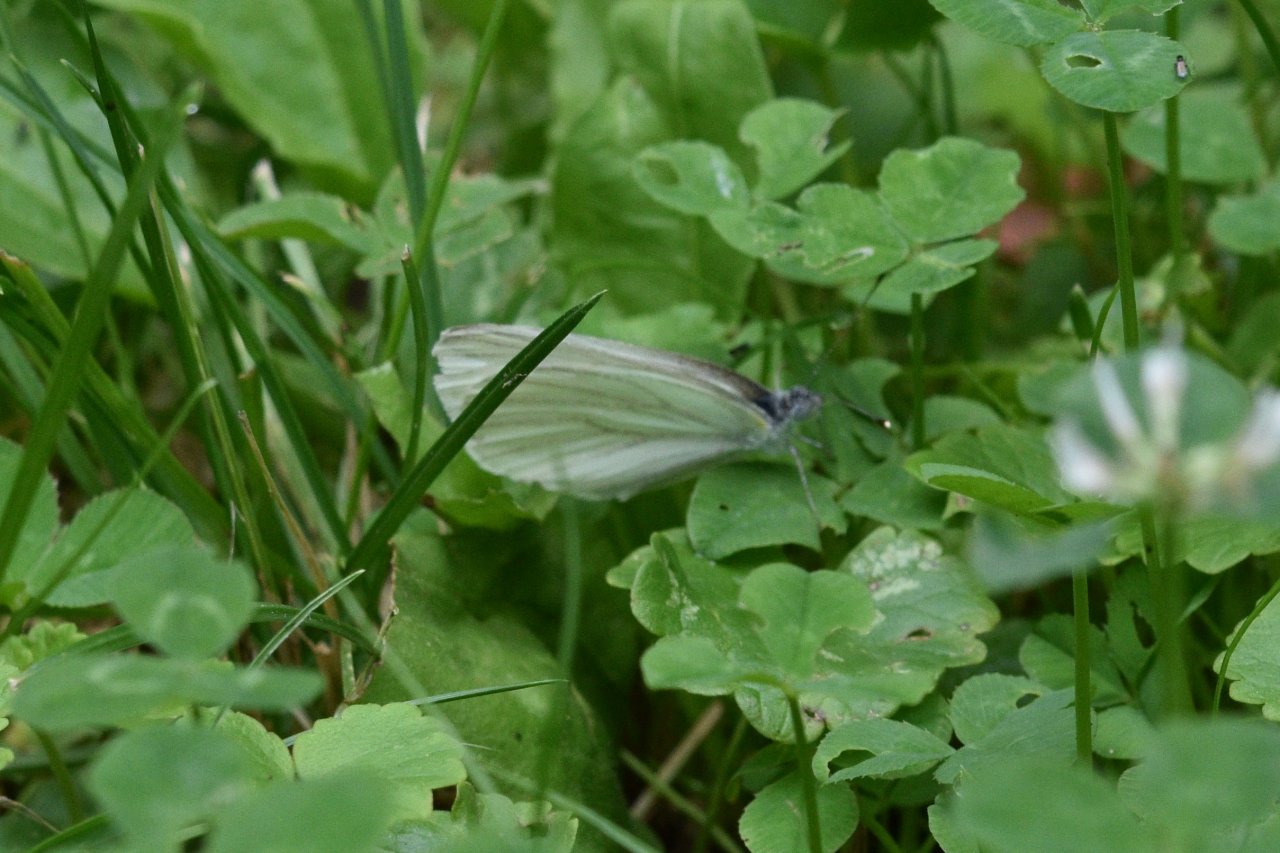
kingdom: Animalia
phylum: Arthropoda
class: Insecta
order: Lepidoptera
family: Pieridae
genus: Pieris
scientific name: Pieris rapae
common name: Cabbage White
